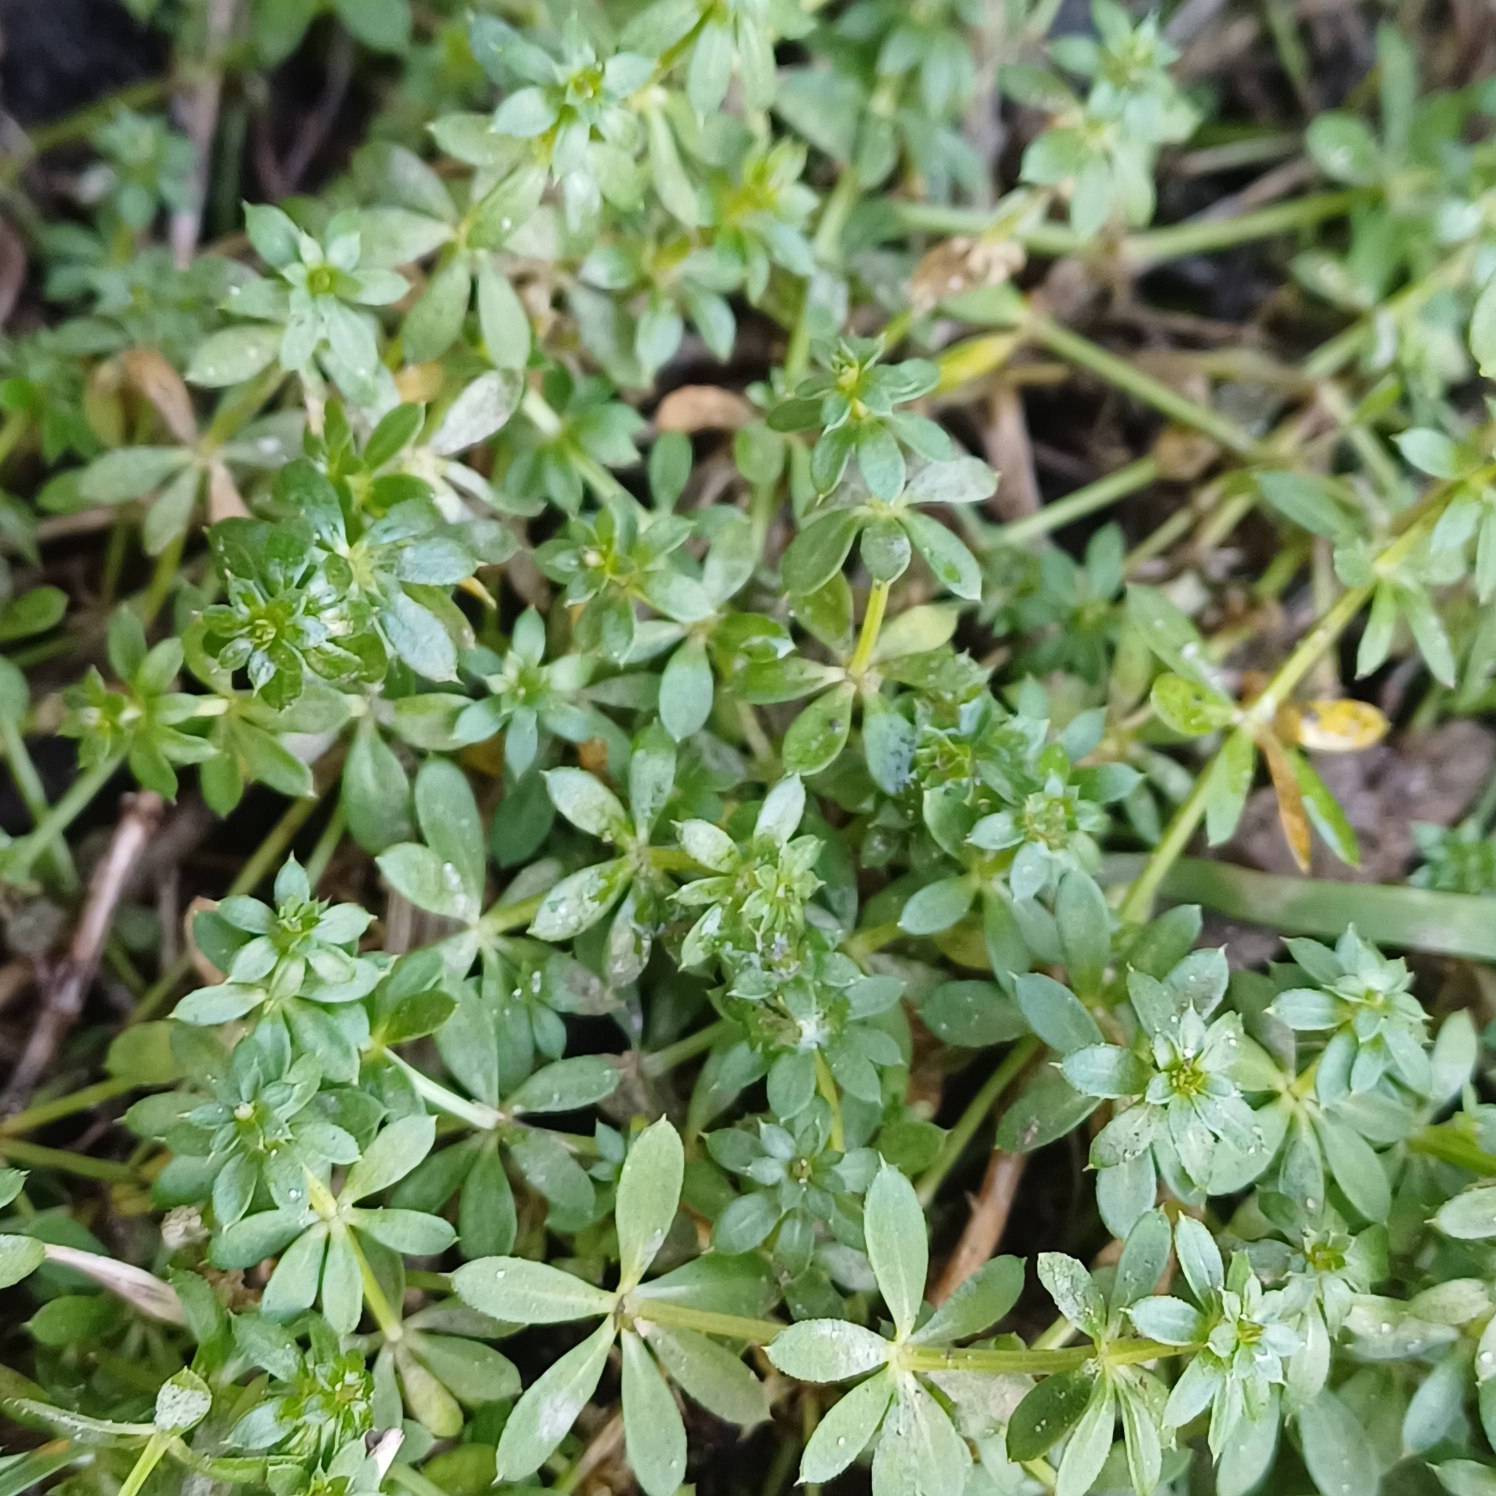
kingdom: Plantae
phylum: Tracheophyta
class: Magnoliopsida
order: Gentianales
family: Rubiaceae
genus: Galium
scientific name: Galium mollugo
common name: Hvid snerre
